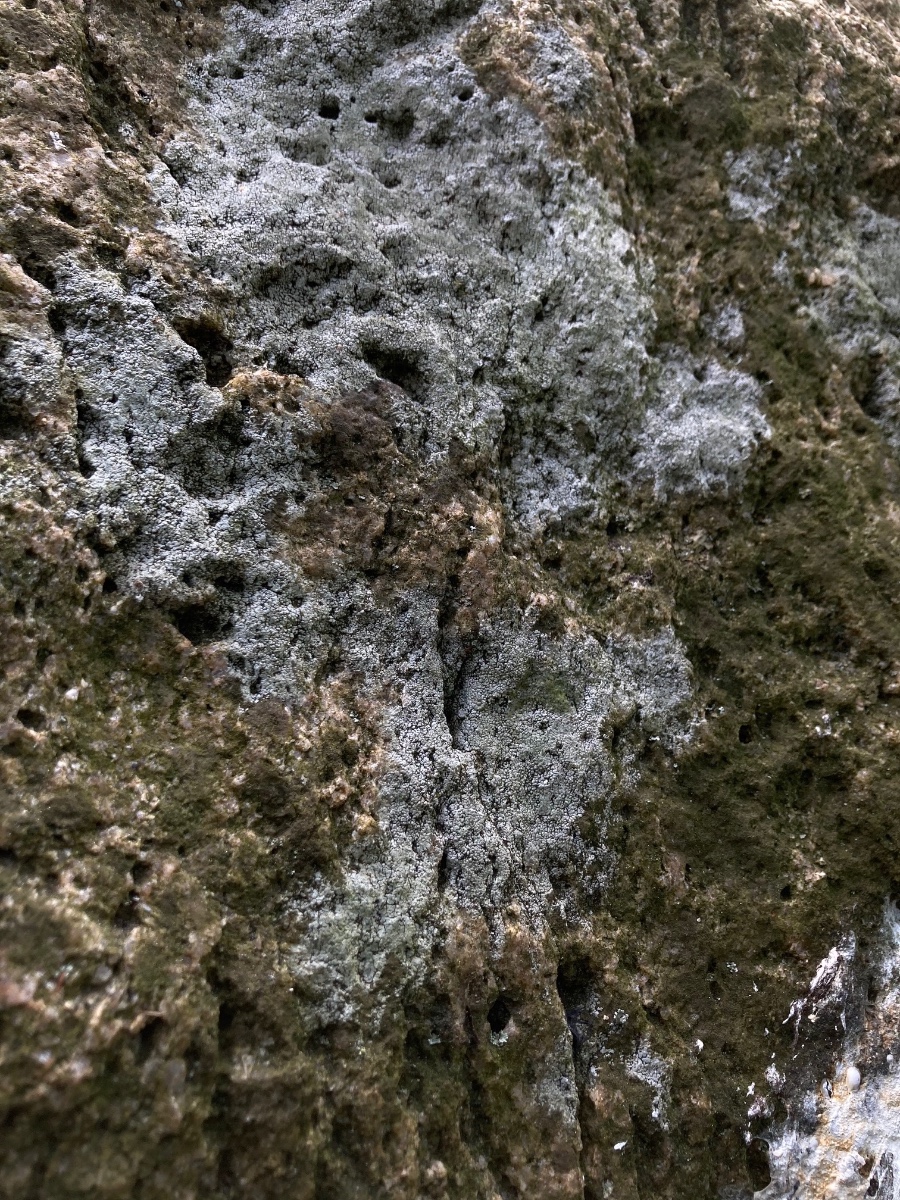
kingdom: Fungi
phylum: Ascomycota
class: Lecanoromycetes
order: Pertusariales
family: Megasporaceae
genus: Circinaria
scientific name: Circinaria caesiocinerea
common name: fuglestens-hulskivelav
